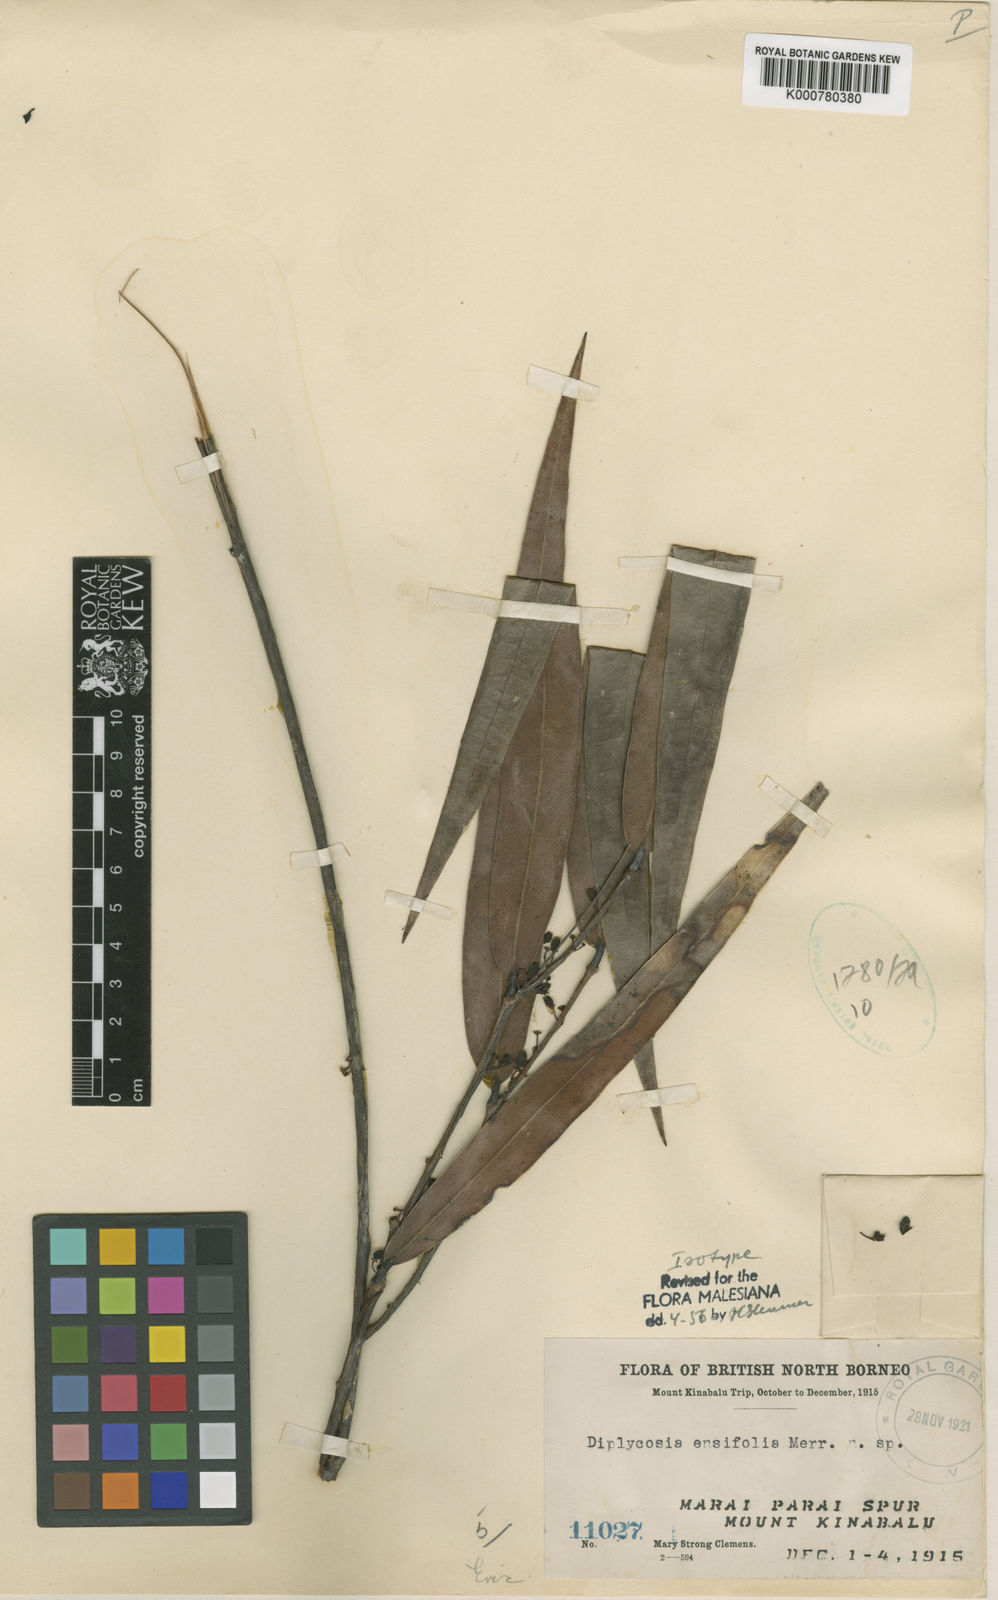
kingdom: Plantae
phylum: Tracheophyta
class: Magnoliopsida
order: Ericales
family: Ericaceae
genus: Gaultheria
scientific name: Gaultheria ensifolia
